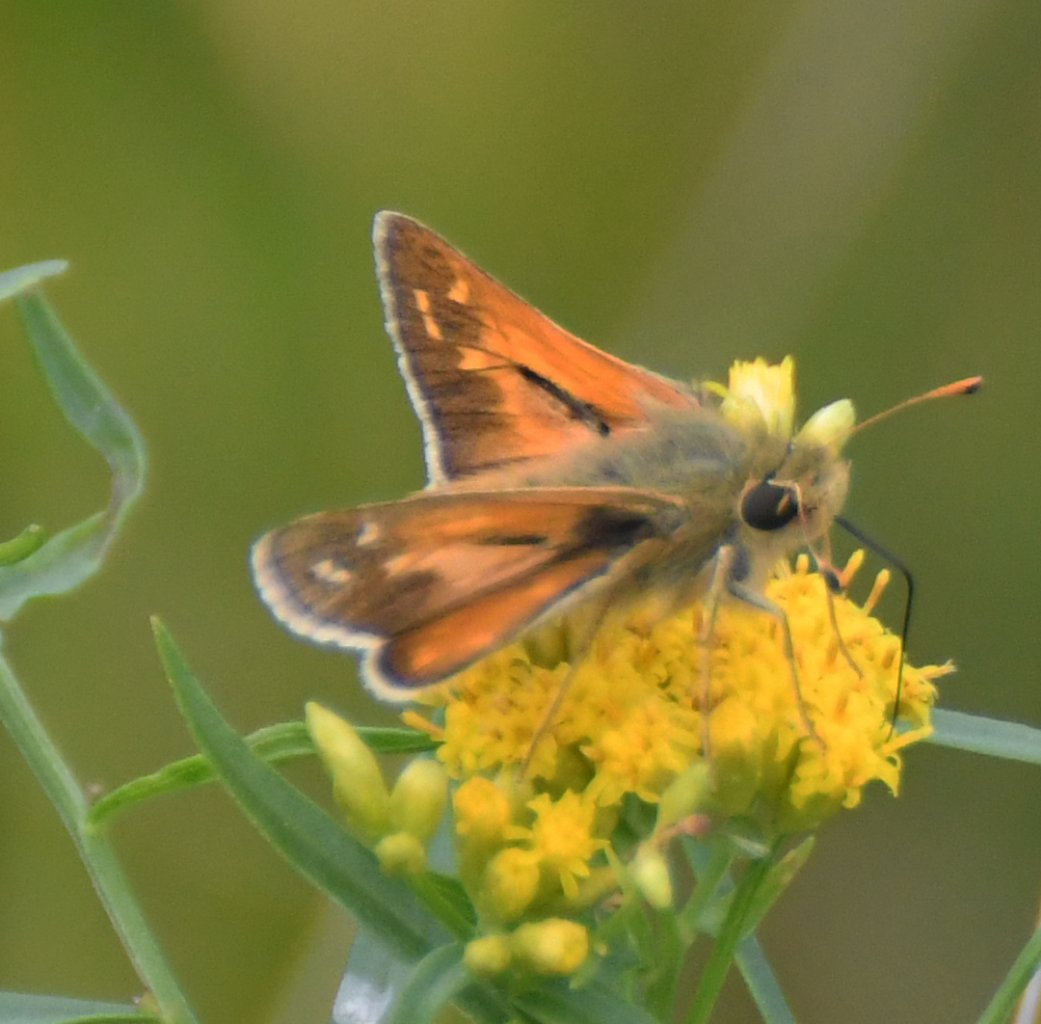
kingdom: Animalia
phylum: Arthropoda
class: Insecta
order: Lepidoptera
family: Hesperiidae
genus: Hesperia
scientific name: Hesperia comma
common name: Common Branded Skipper
